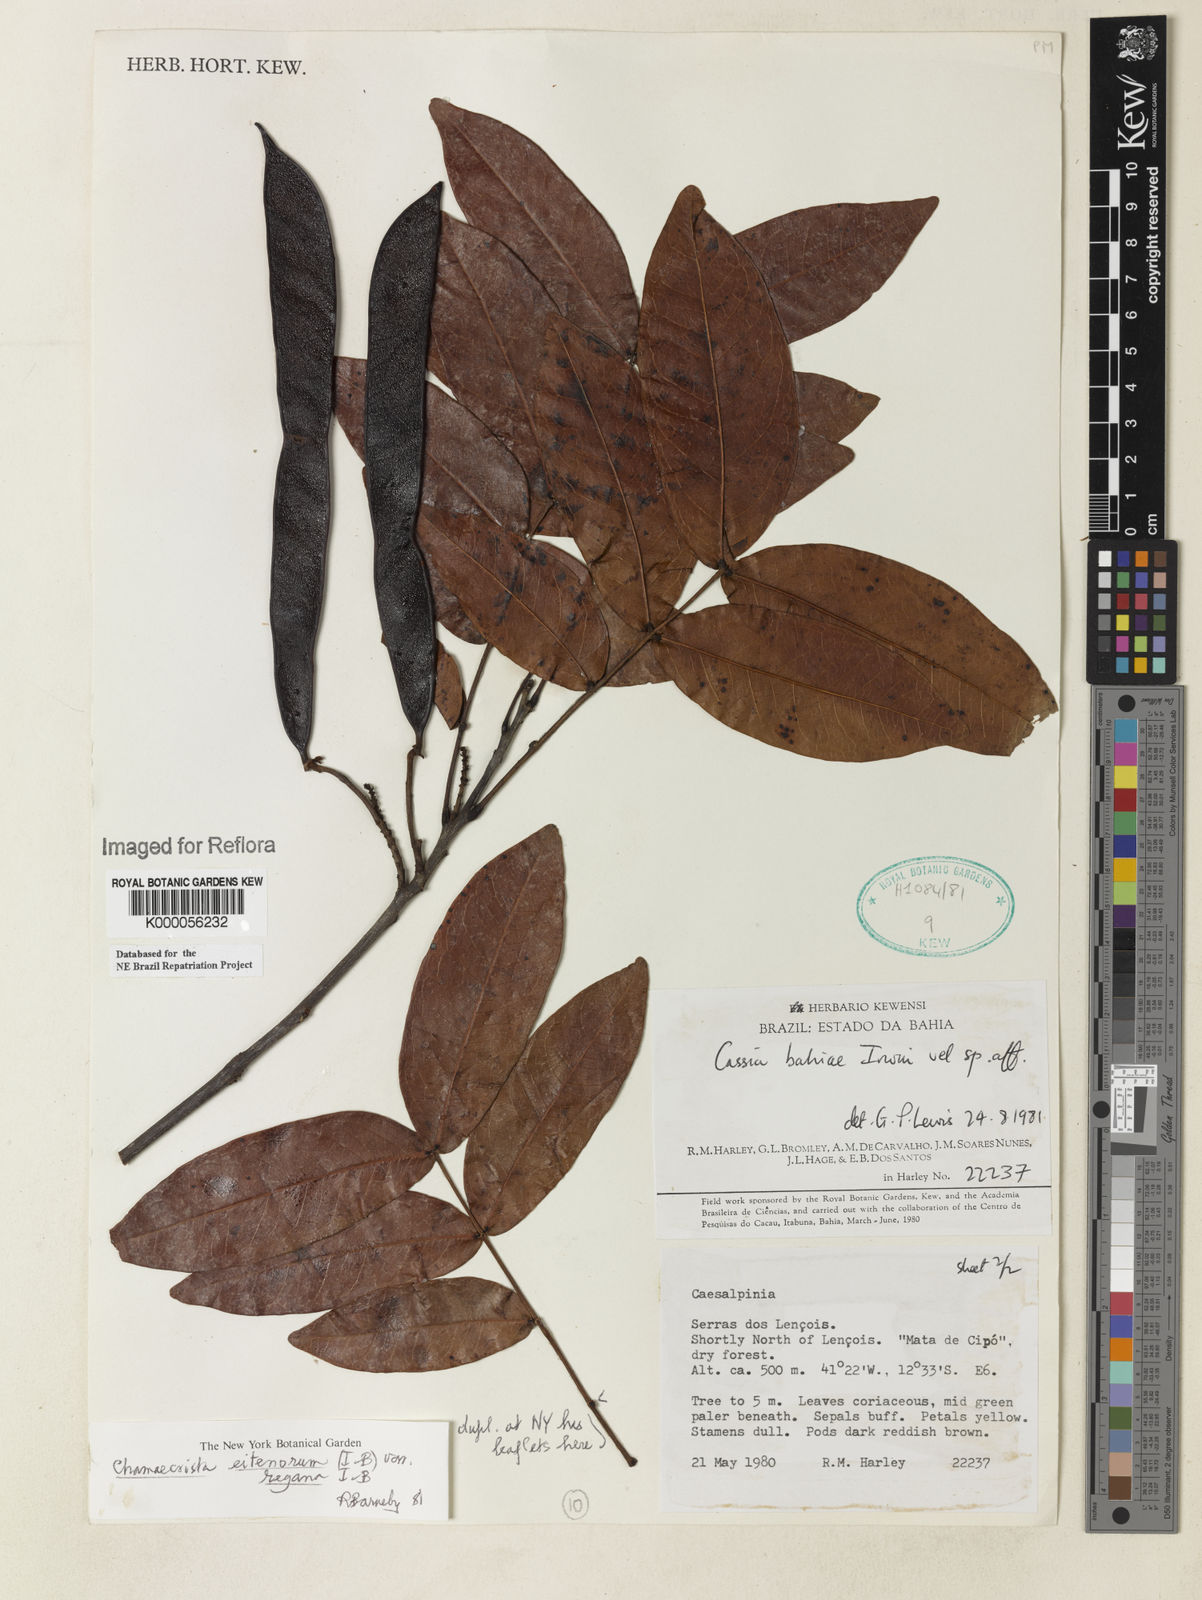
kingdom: Plantae
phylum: Tracheophyta
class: Magnoliopsida
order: Fabales
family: Fabaceae
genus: Chamaecrista
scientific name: Chamaecrista eitenorum
